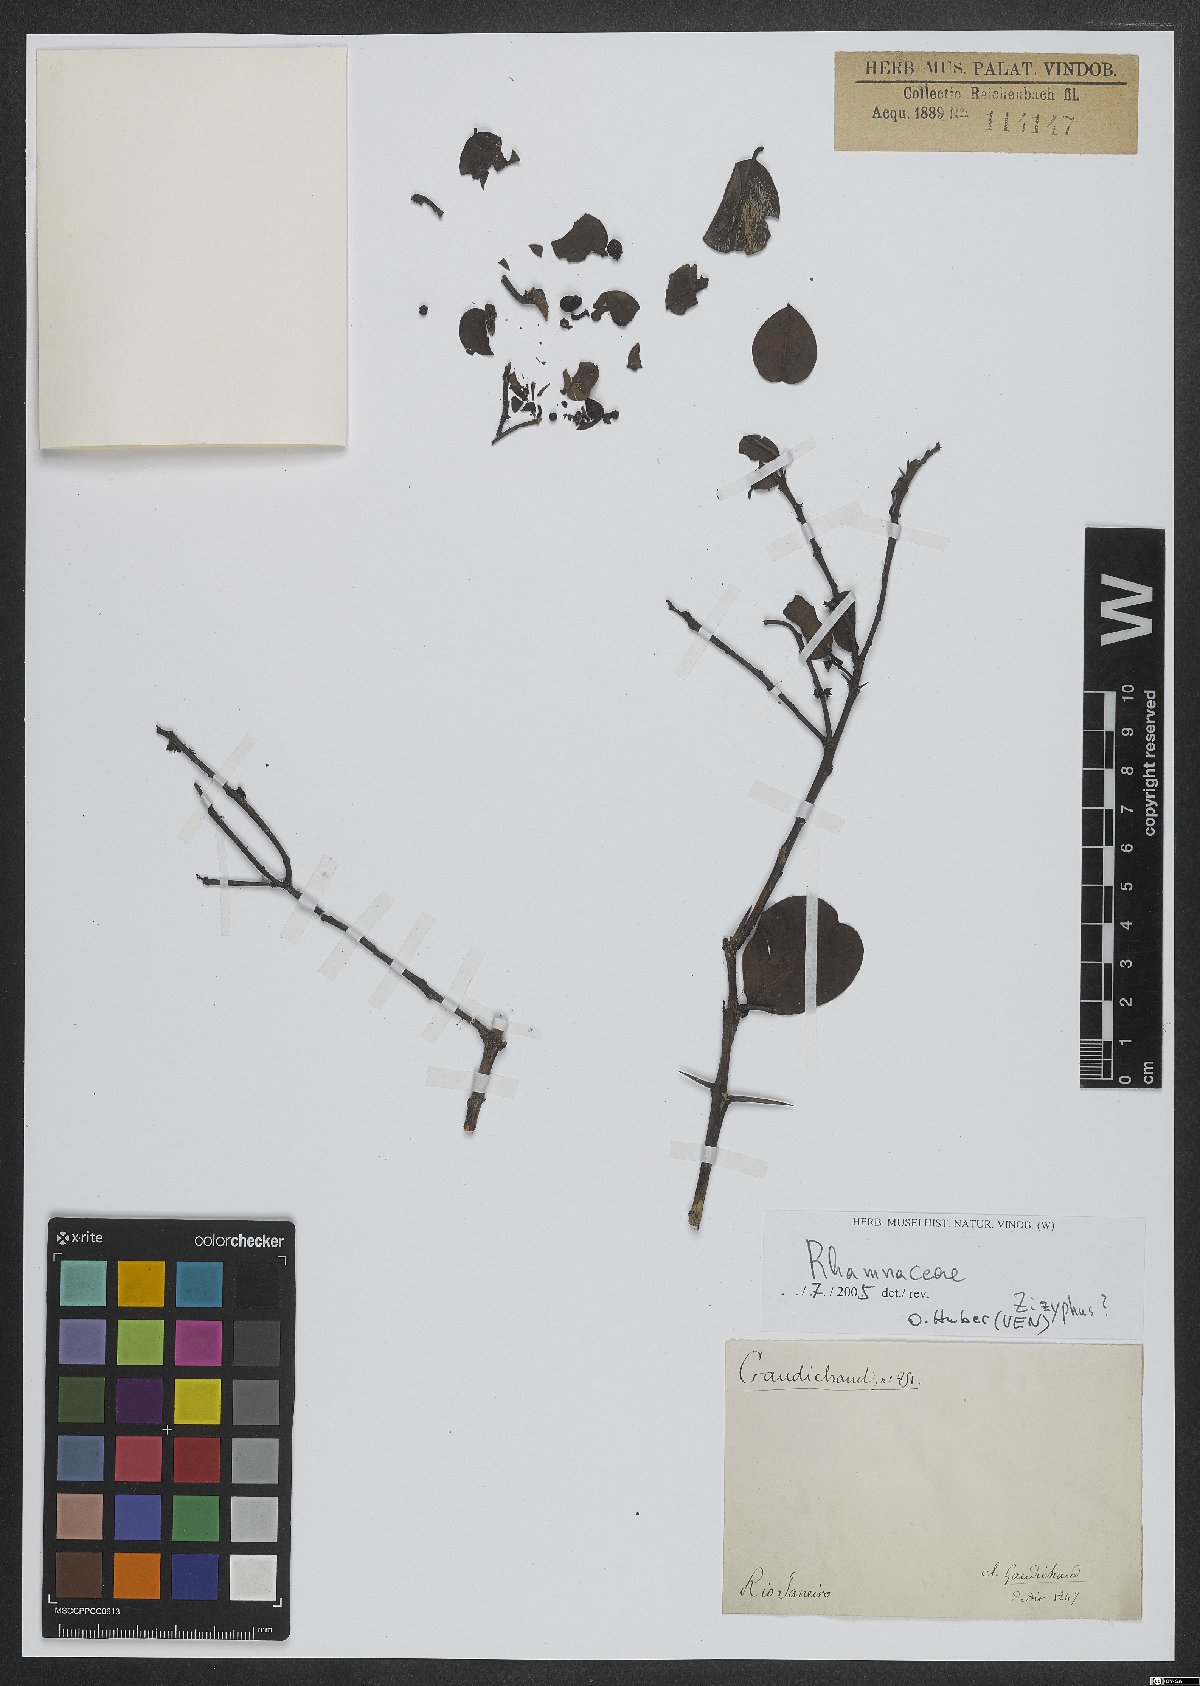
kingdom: Plantae
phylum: Tracheophyta
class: Magnoliopsida
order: Rosales
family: Rhamnaceae
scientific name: Rhamnaceae
